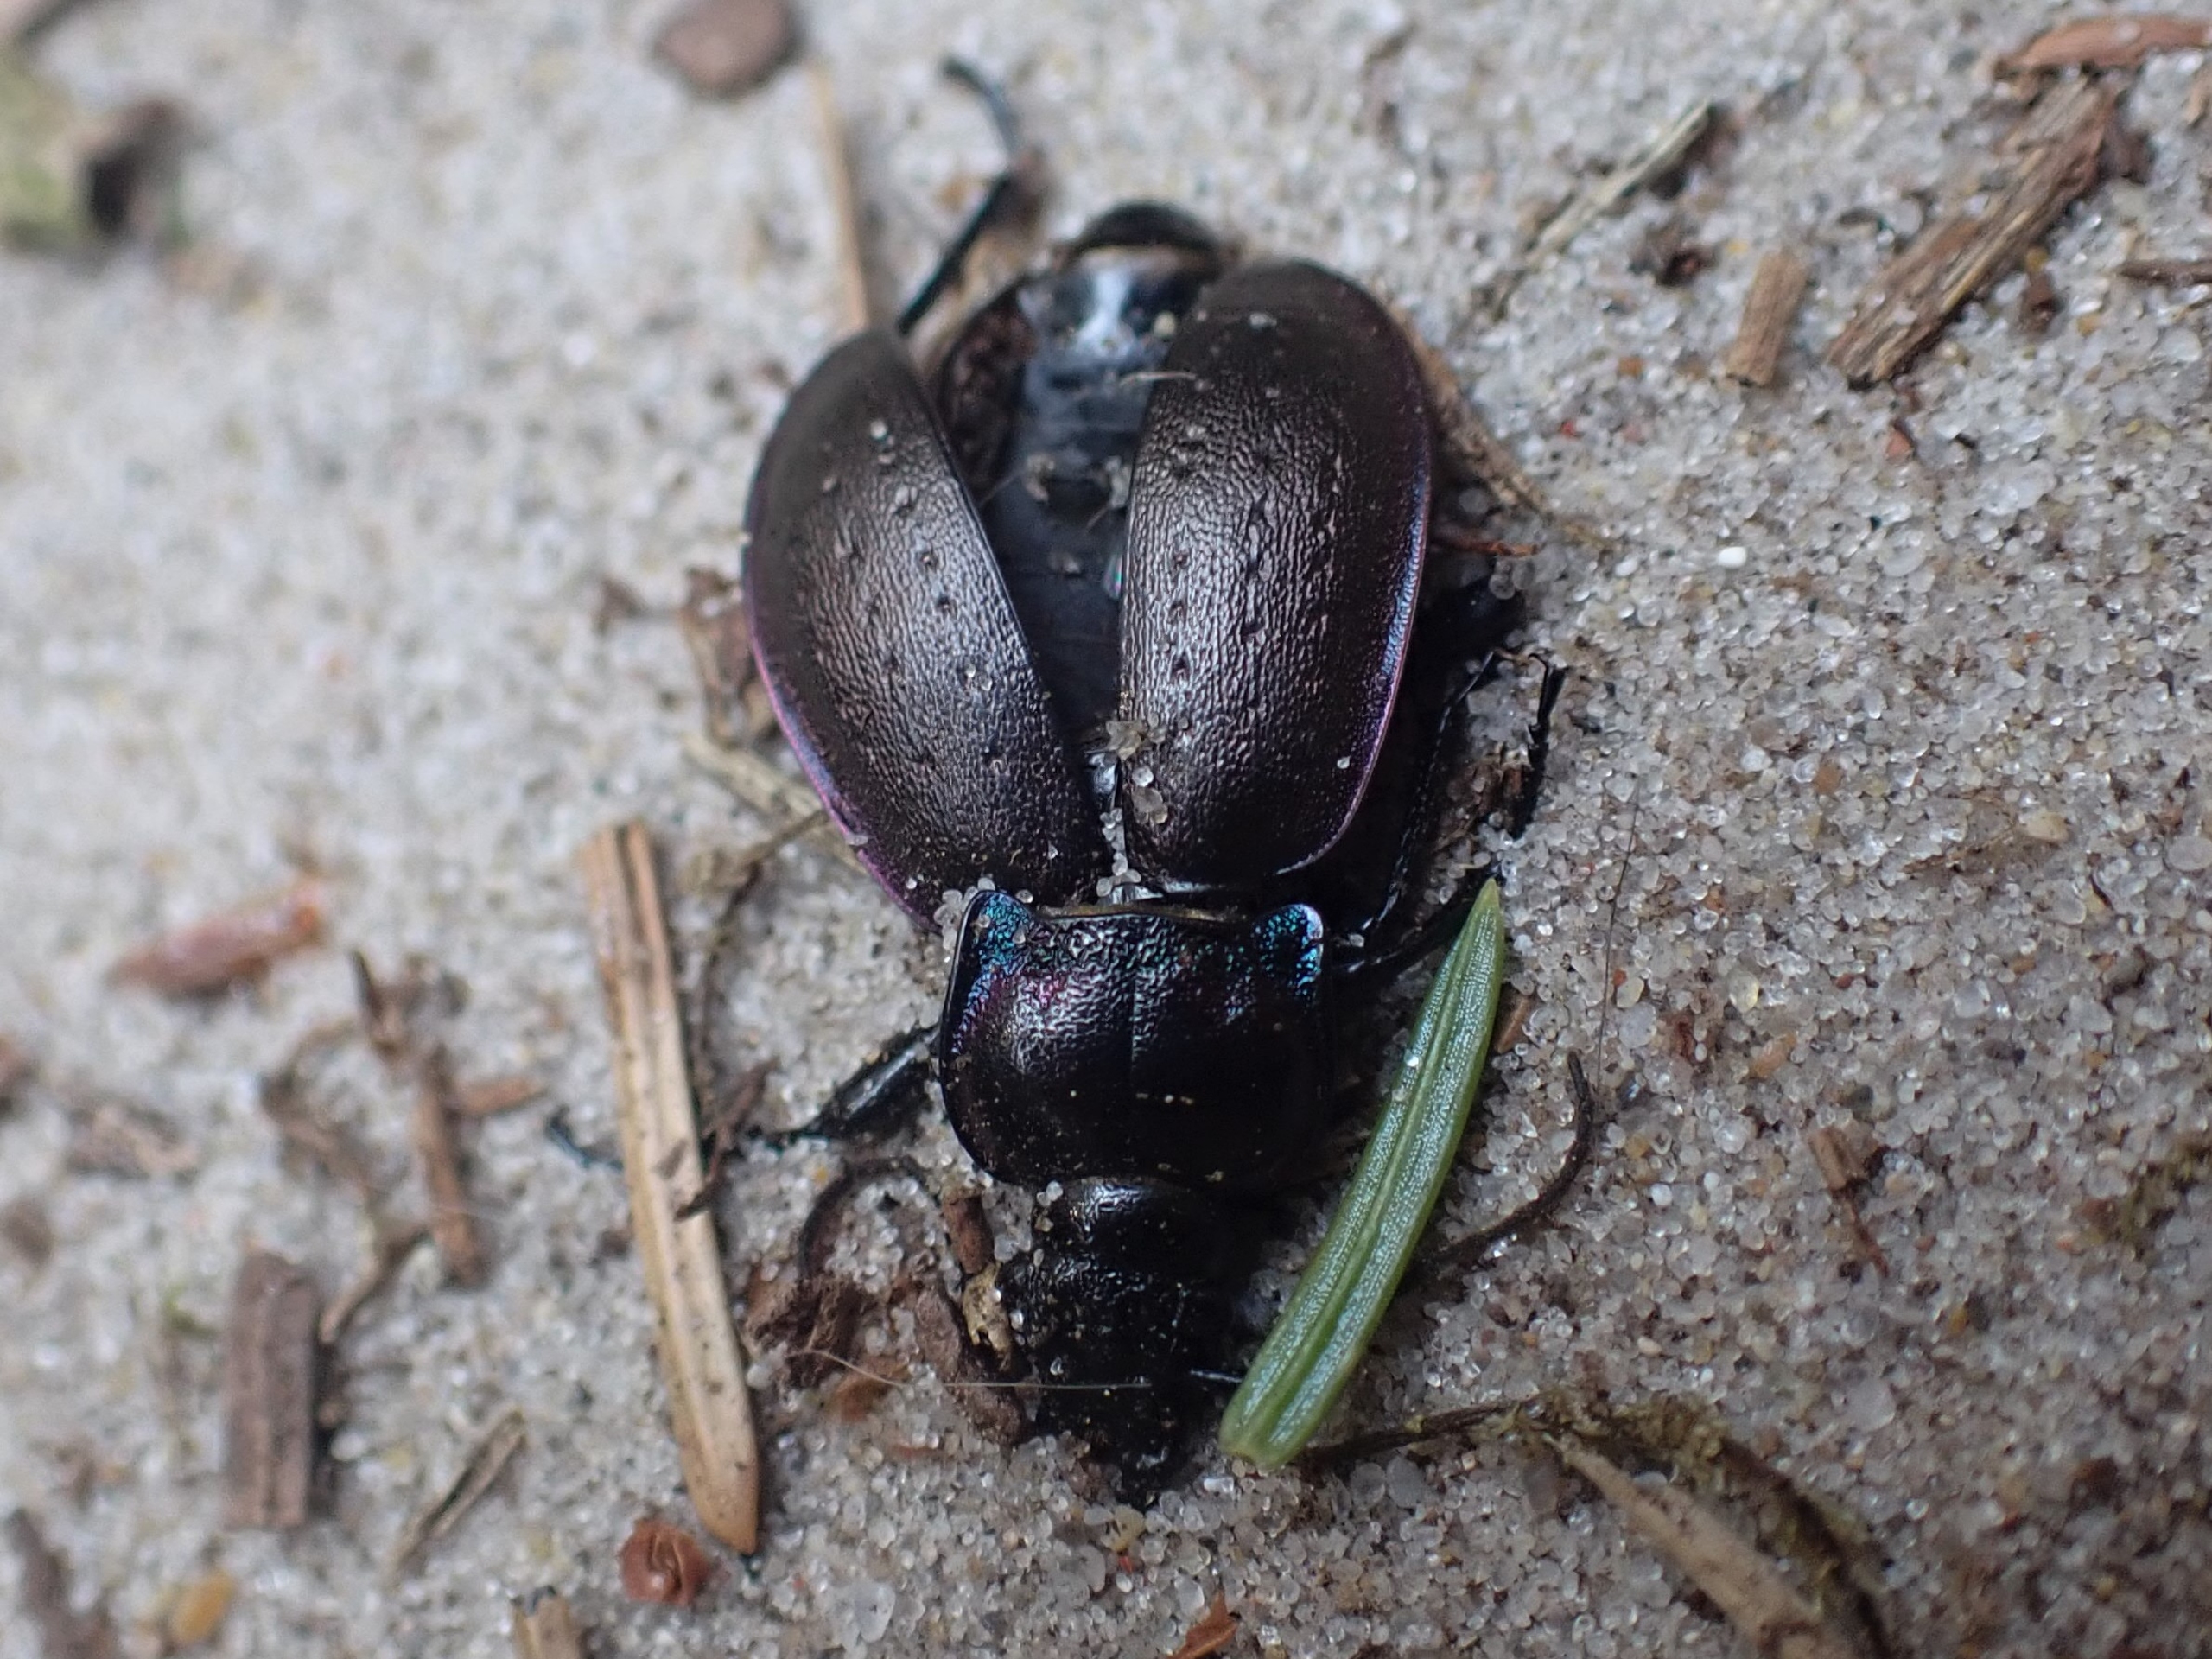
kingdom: Animalia
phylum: Arthropoda
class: Insecta
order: Coleoptera
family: Carabidae
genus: Carabus
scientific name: Carabus nemoralis
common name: Kratløber
